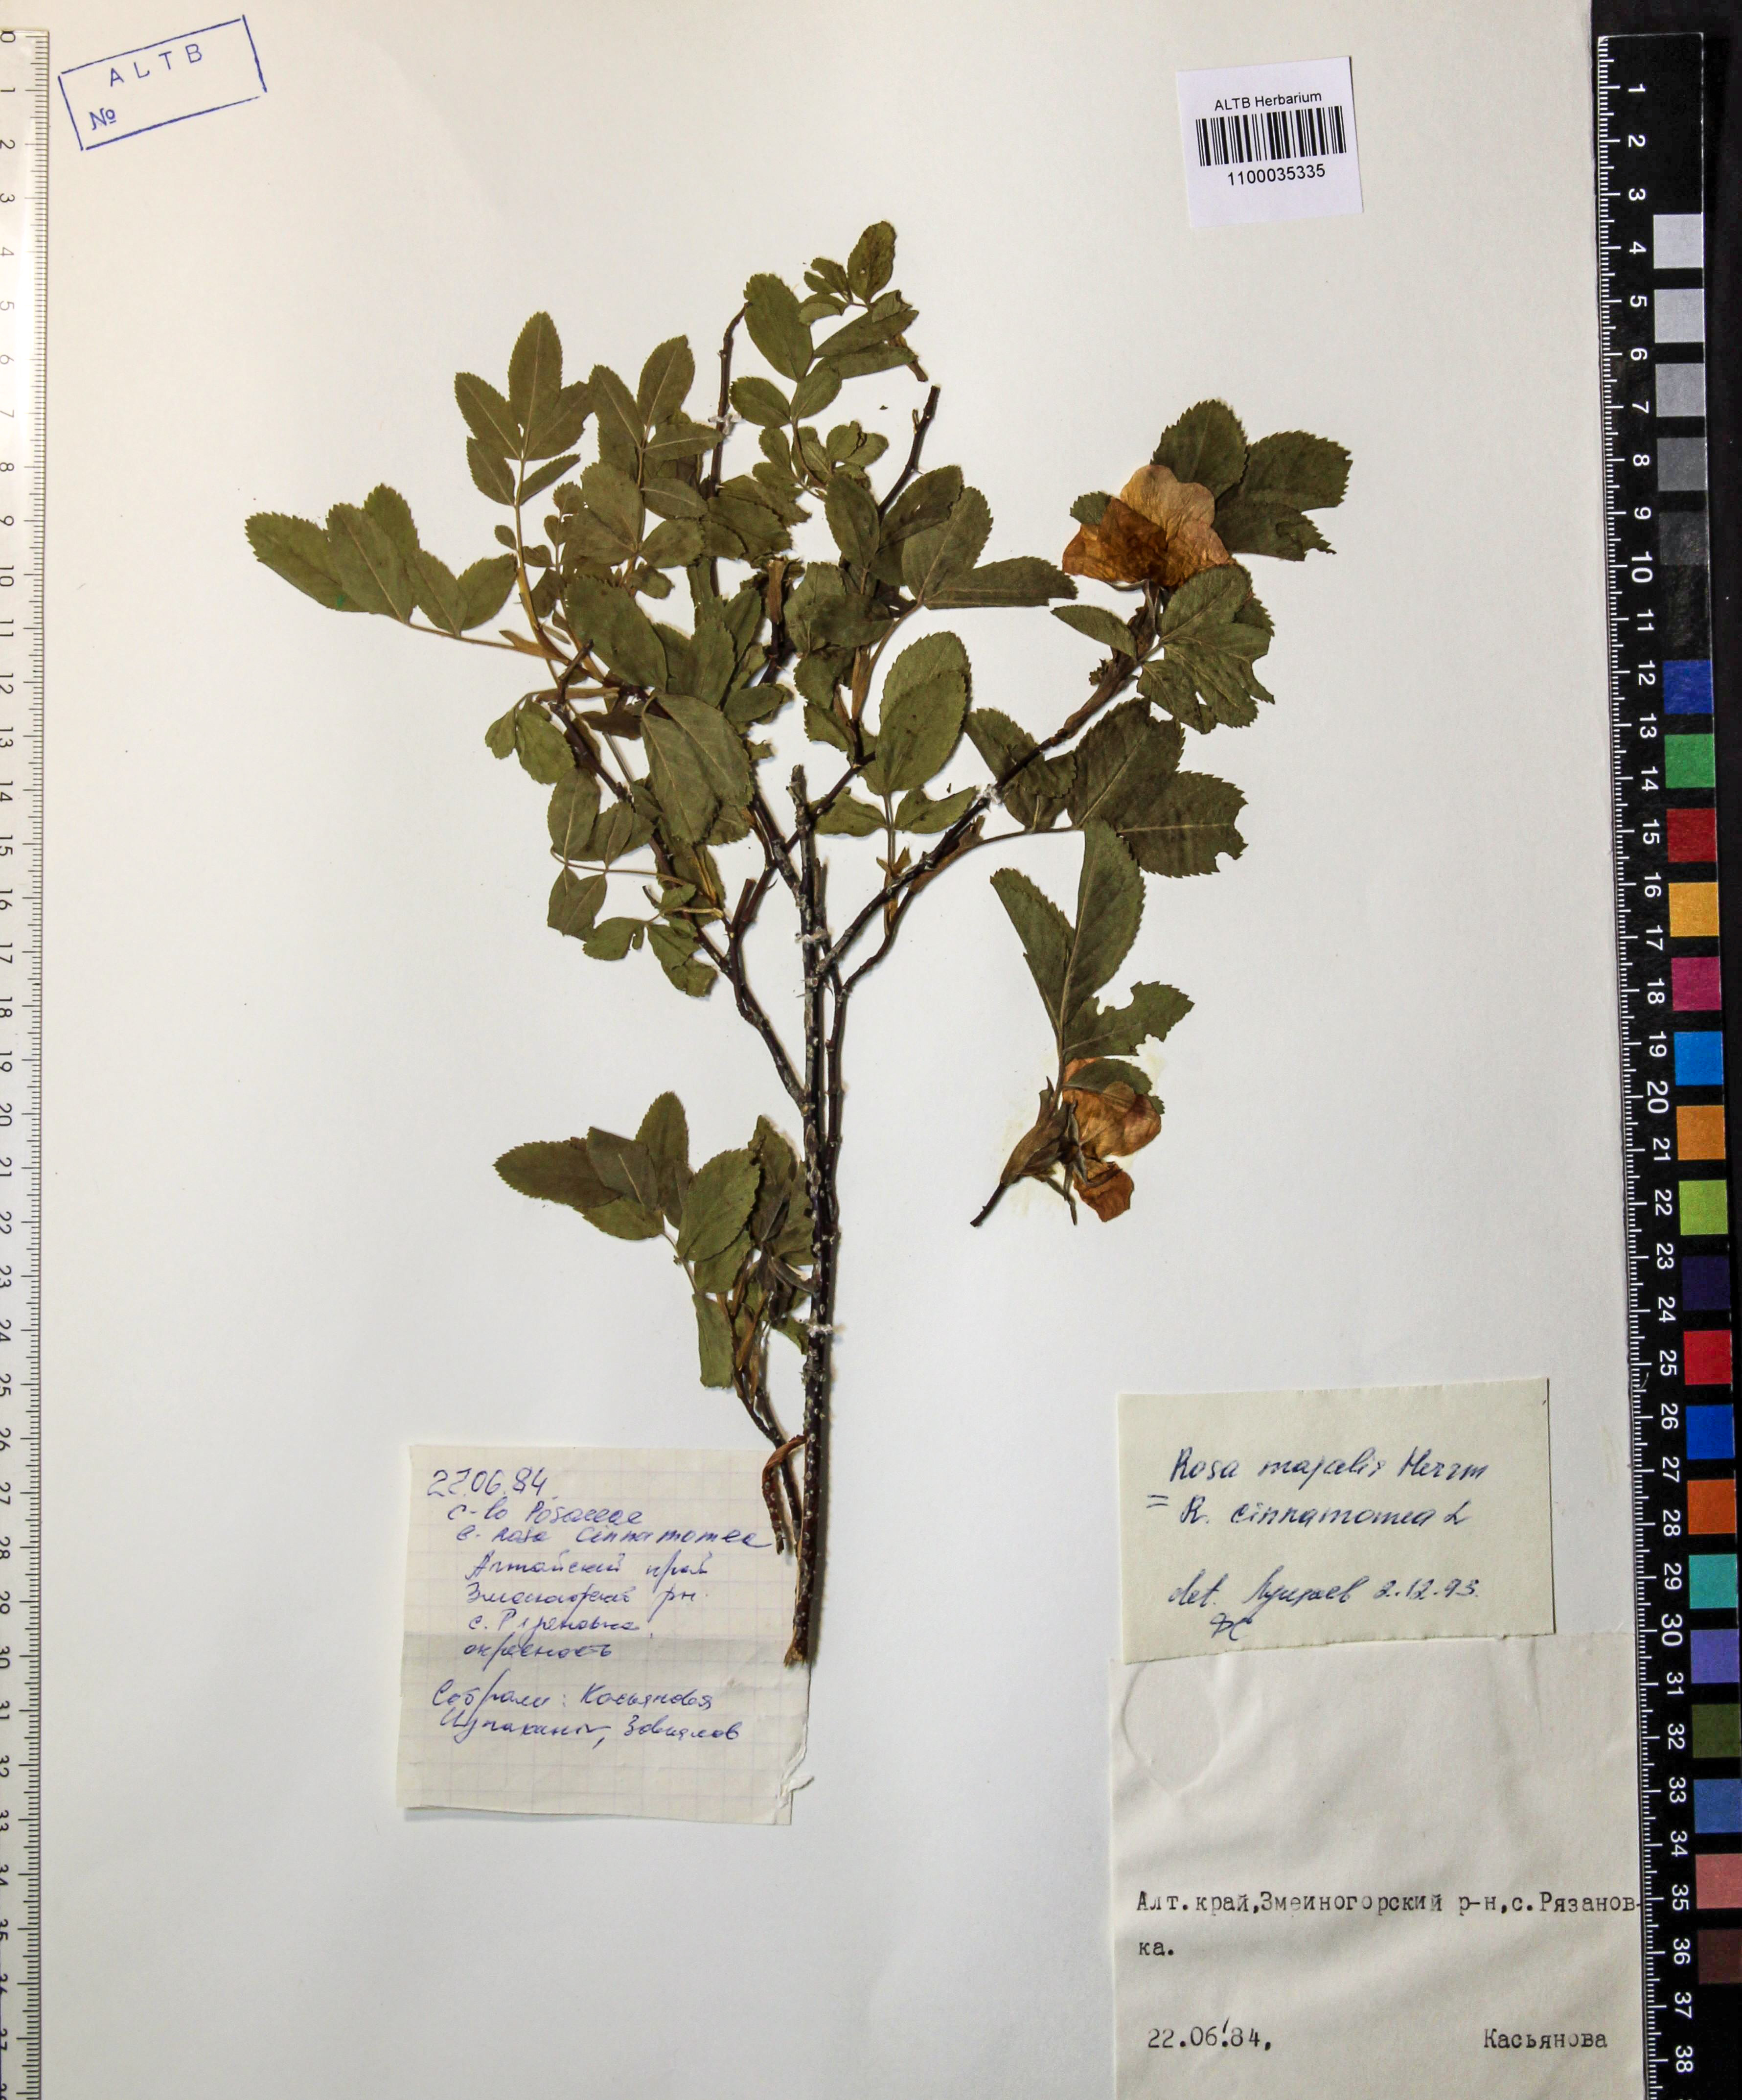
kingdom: Plantae
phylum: Tracheophyta
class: Magnoliopsida
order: Rosales
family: Rosaceae
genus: Rosa
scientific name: Rosa majalis
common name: Cinnamon rose
